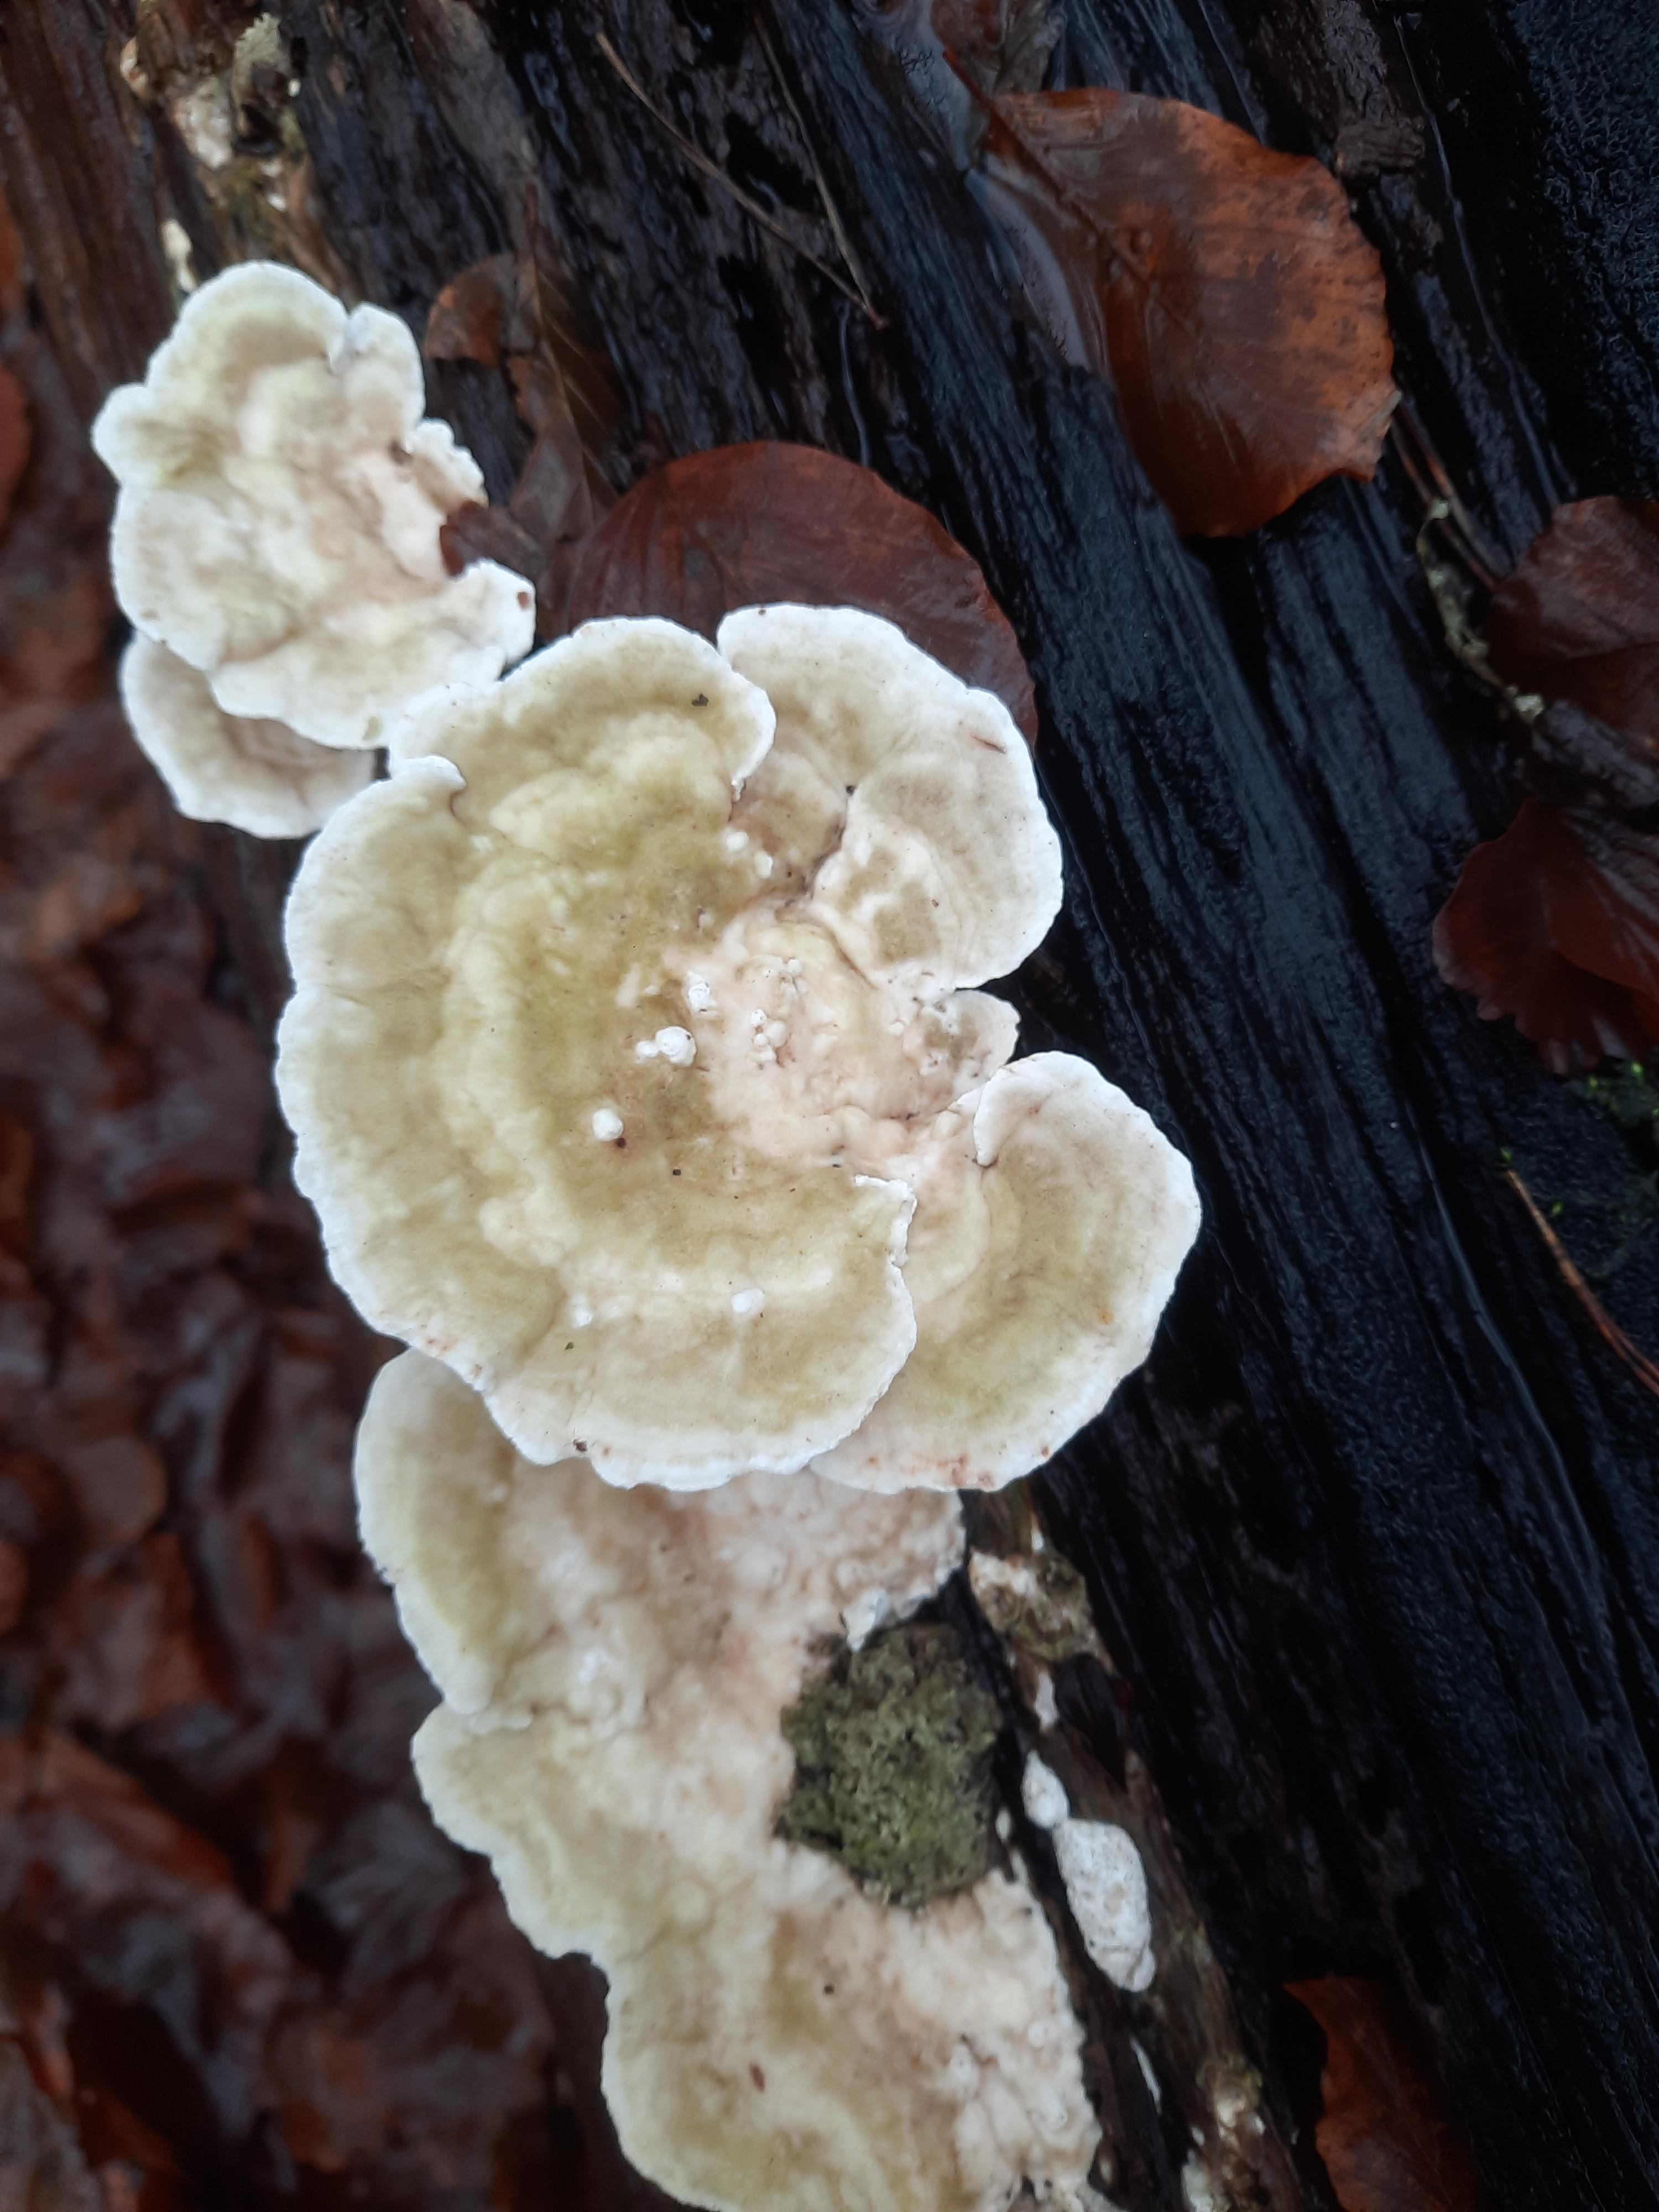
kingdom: Fungi
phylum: Basidiomycota
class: Agaricomycetes
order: Polyporales
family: Polyporaceae
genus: Trametes
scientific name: Trametes gibbosa
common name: puklet læderporesvamp
